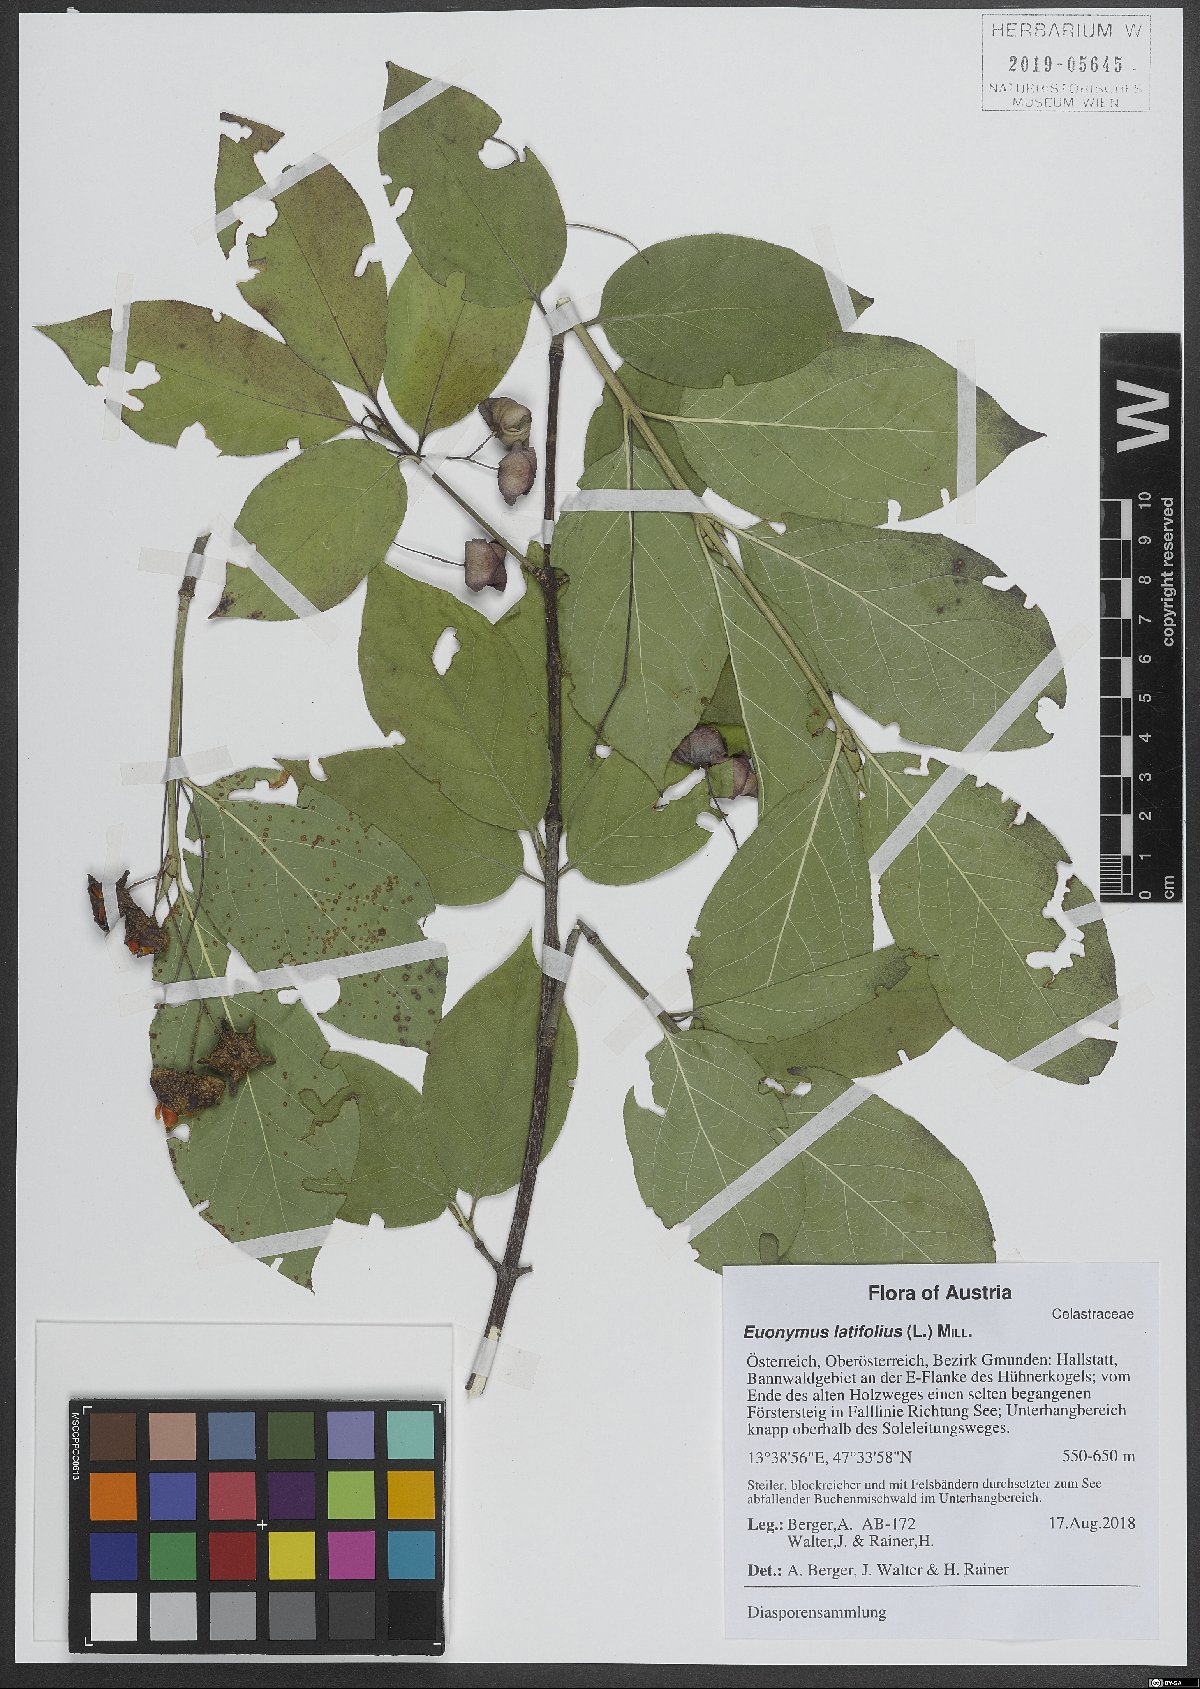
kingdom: Plantae
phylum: Tracheophyta
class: Magnoliopsida
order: Celastrales
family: Celastraceae
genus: Euonymus
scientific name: Euonymus latifolius
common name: Large-leaved spindle
